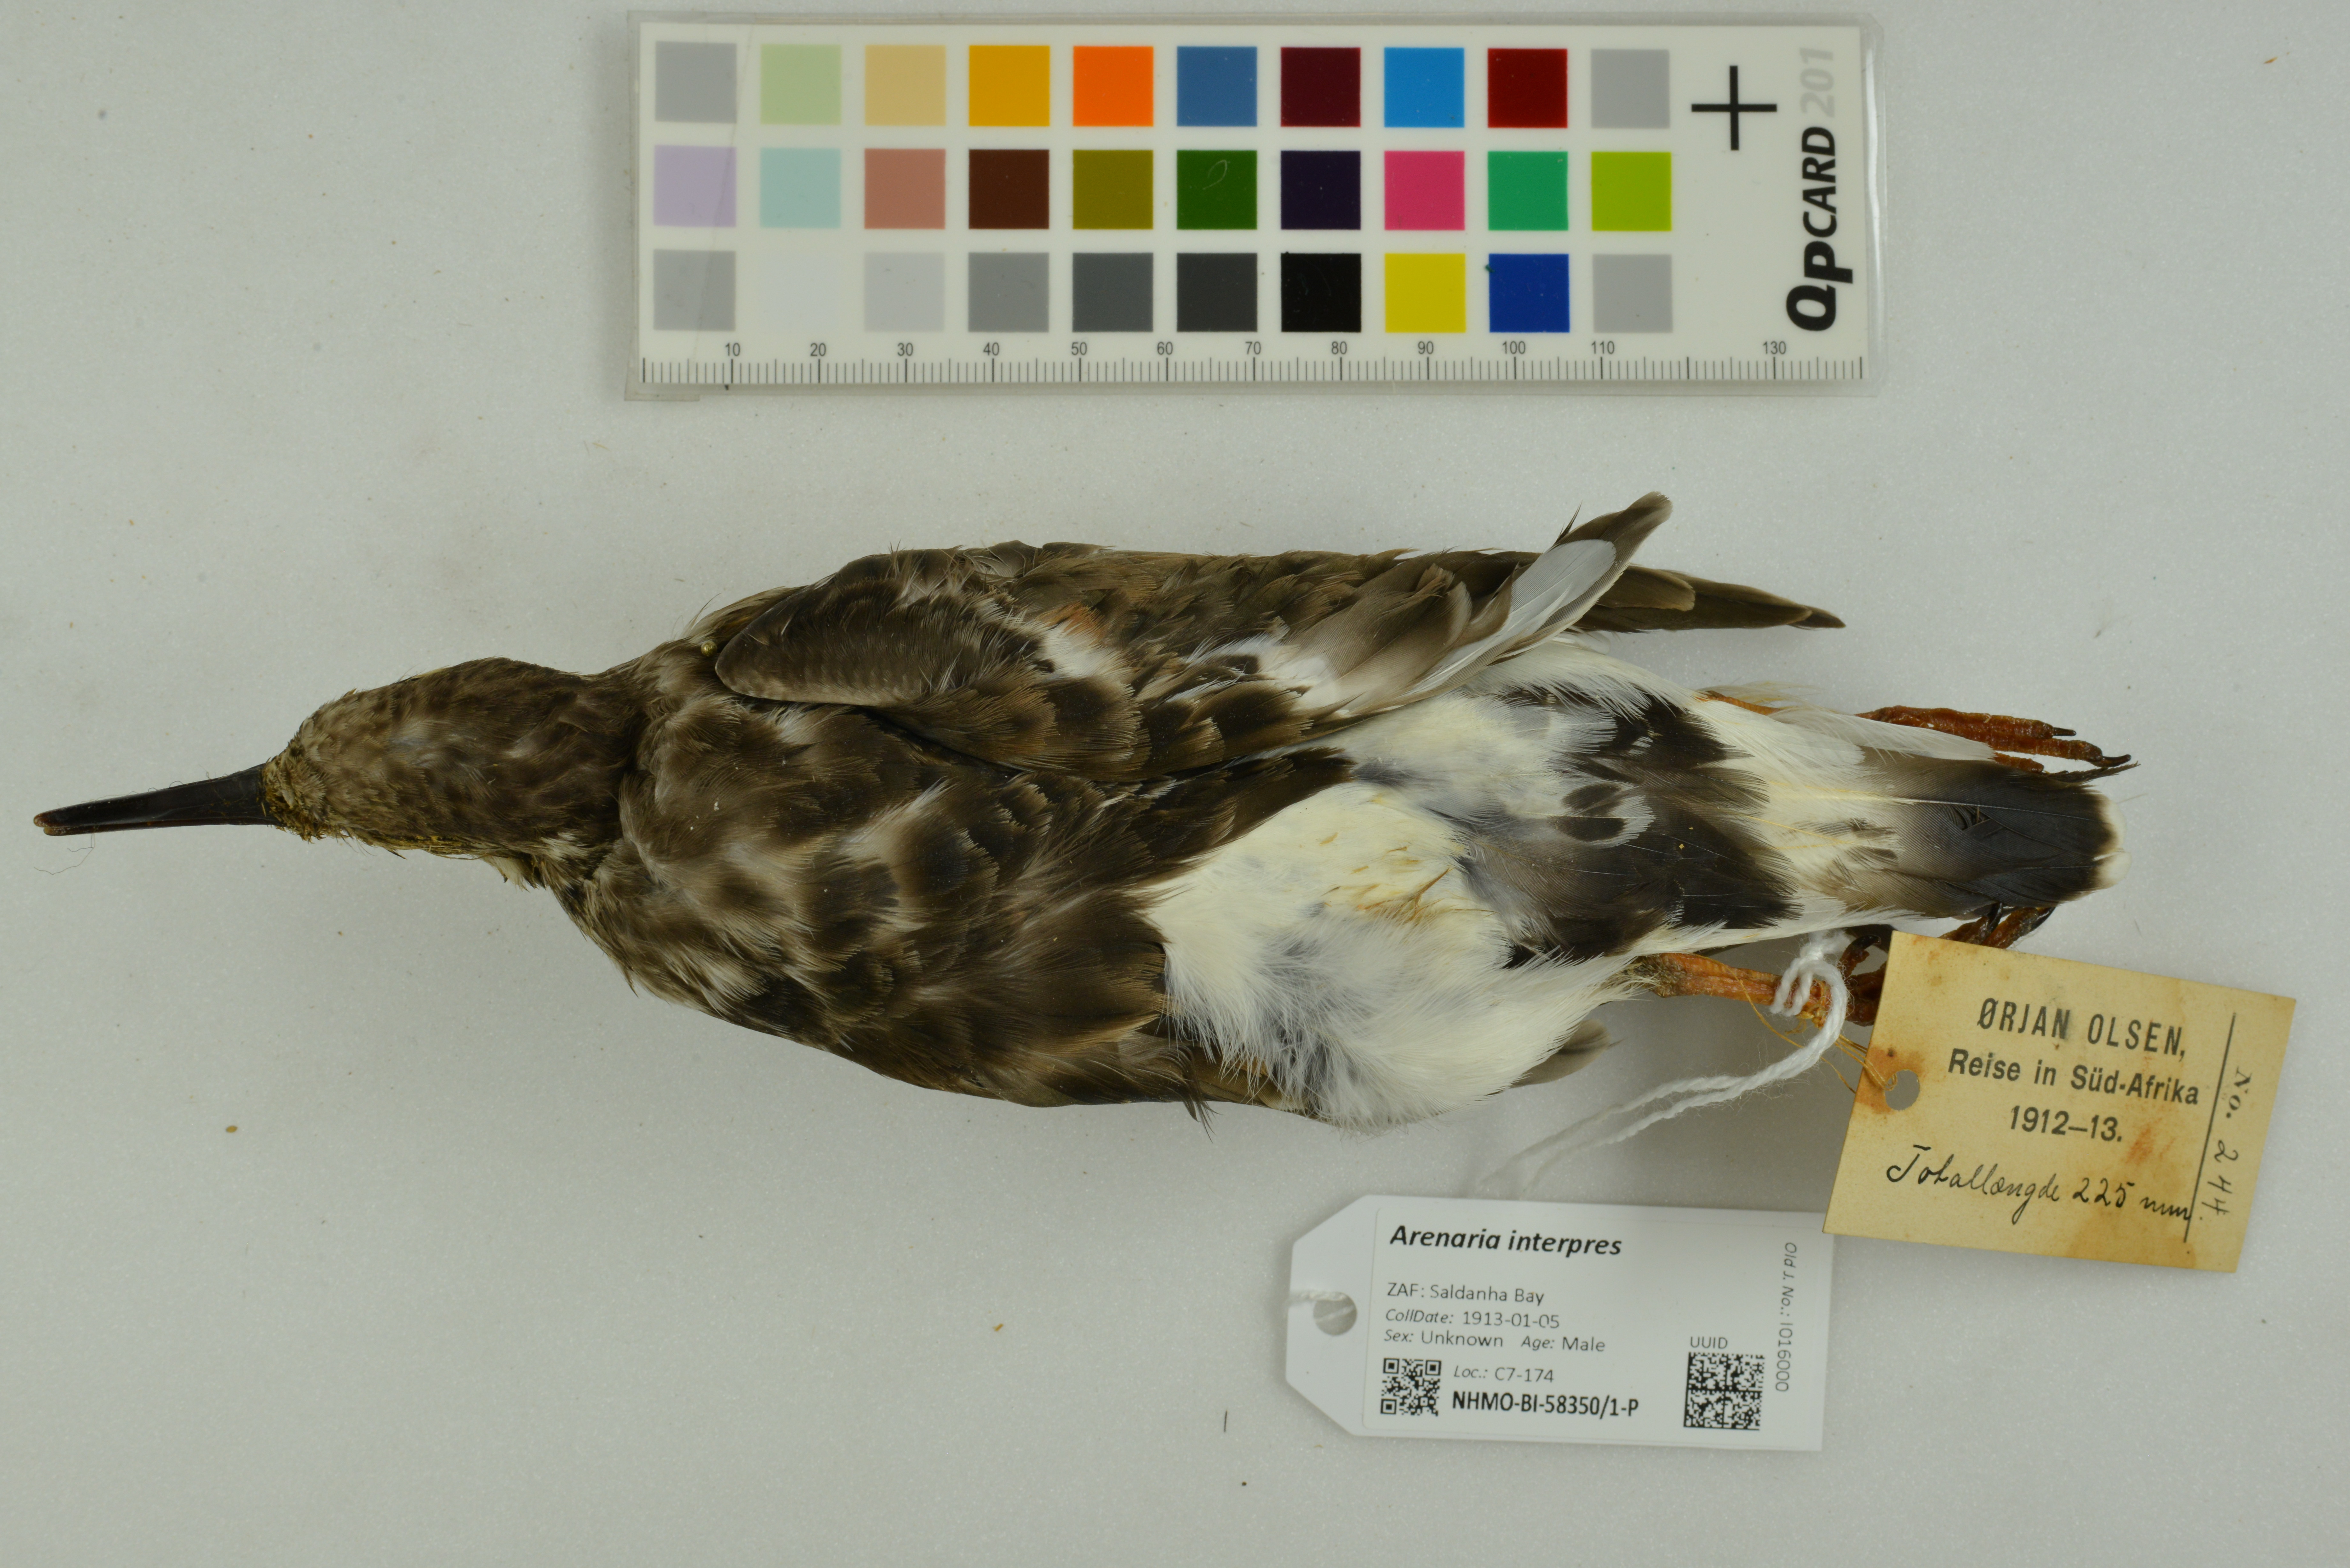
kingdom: Animalia
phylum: Chordata
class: Aves
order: Charadriiformes
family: Scolopacidae
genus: Arenaria
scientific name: Arenaria interpres
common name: Ruddy turnstone
